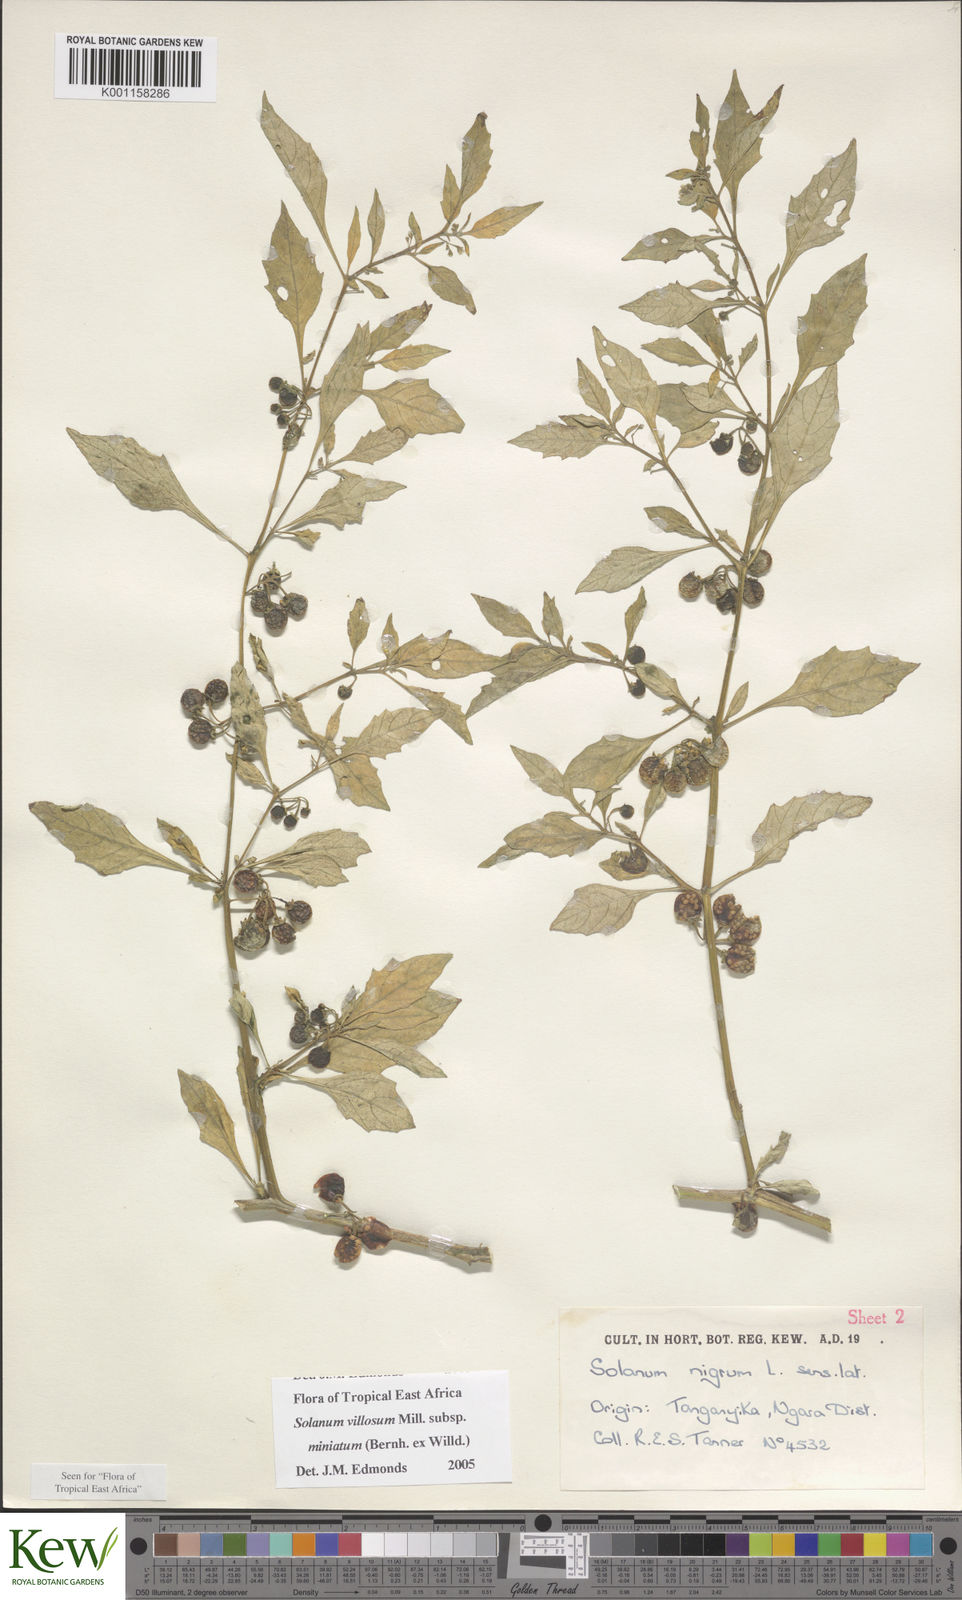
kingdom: Plantae
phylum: Tracheophyta
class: Magnoliopsida
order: Solanales
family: Solanaceae
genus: Solanum
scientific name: Solanum villosum
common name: Red nightshade
